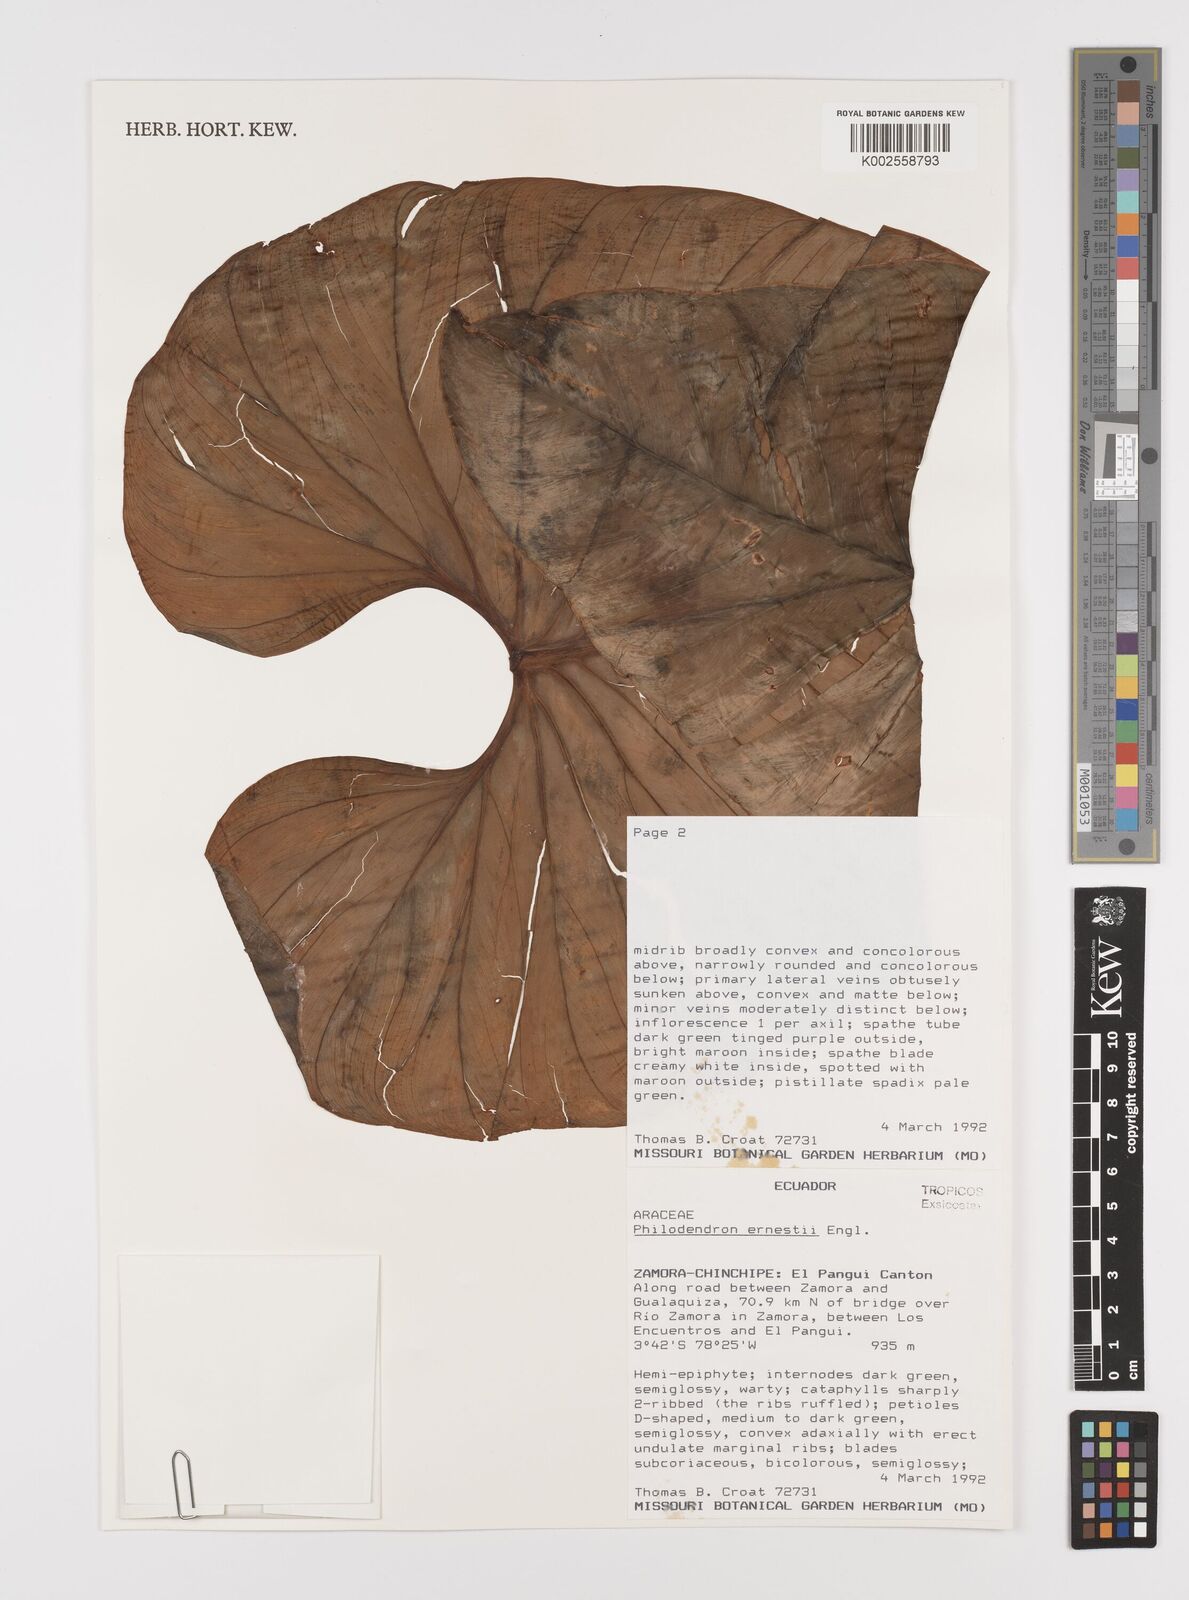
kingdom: Plantae
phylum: Tracheophyta
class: Liliopsida
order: Alismatales
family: Araceae
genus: Philodendron
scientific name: Philodendron ernestii
